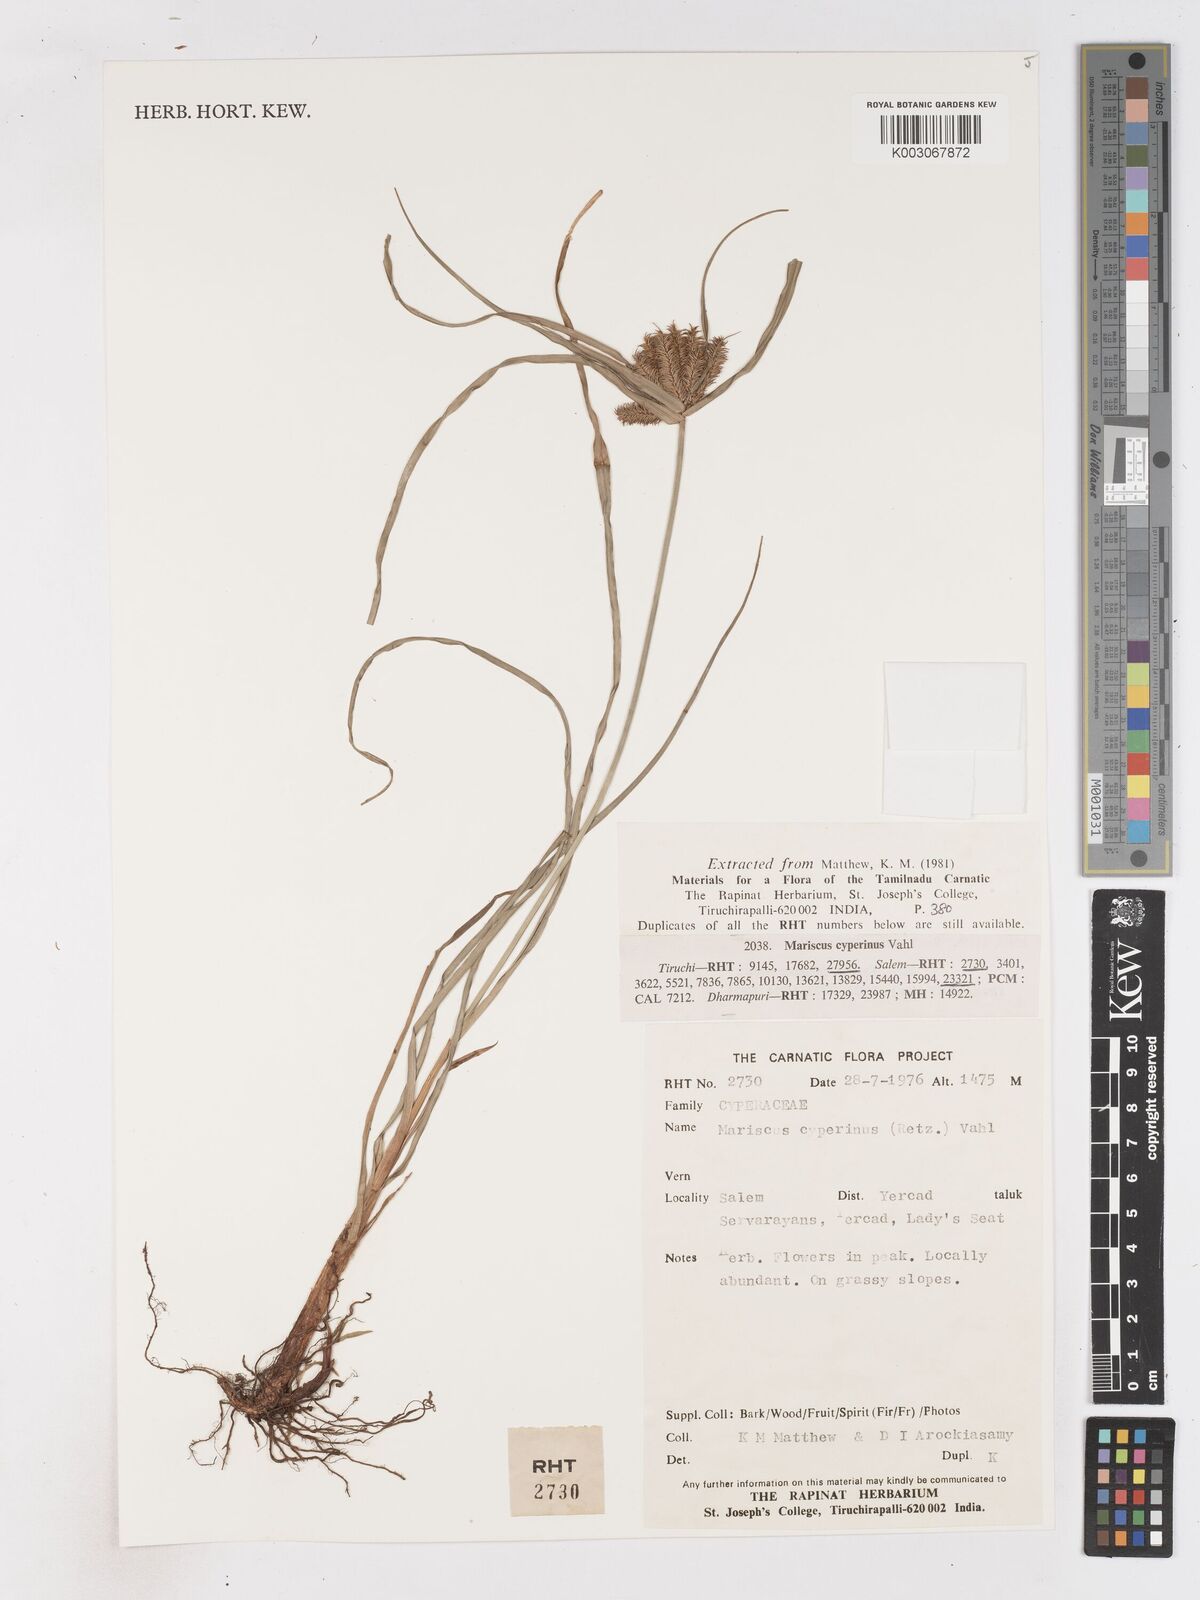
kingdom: Plantae
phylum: Tracheophyta
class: Liliopsida
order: Poales
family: Cyperaceae
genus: Cyperus
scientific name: Cyperus cyperinus
